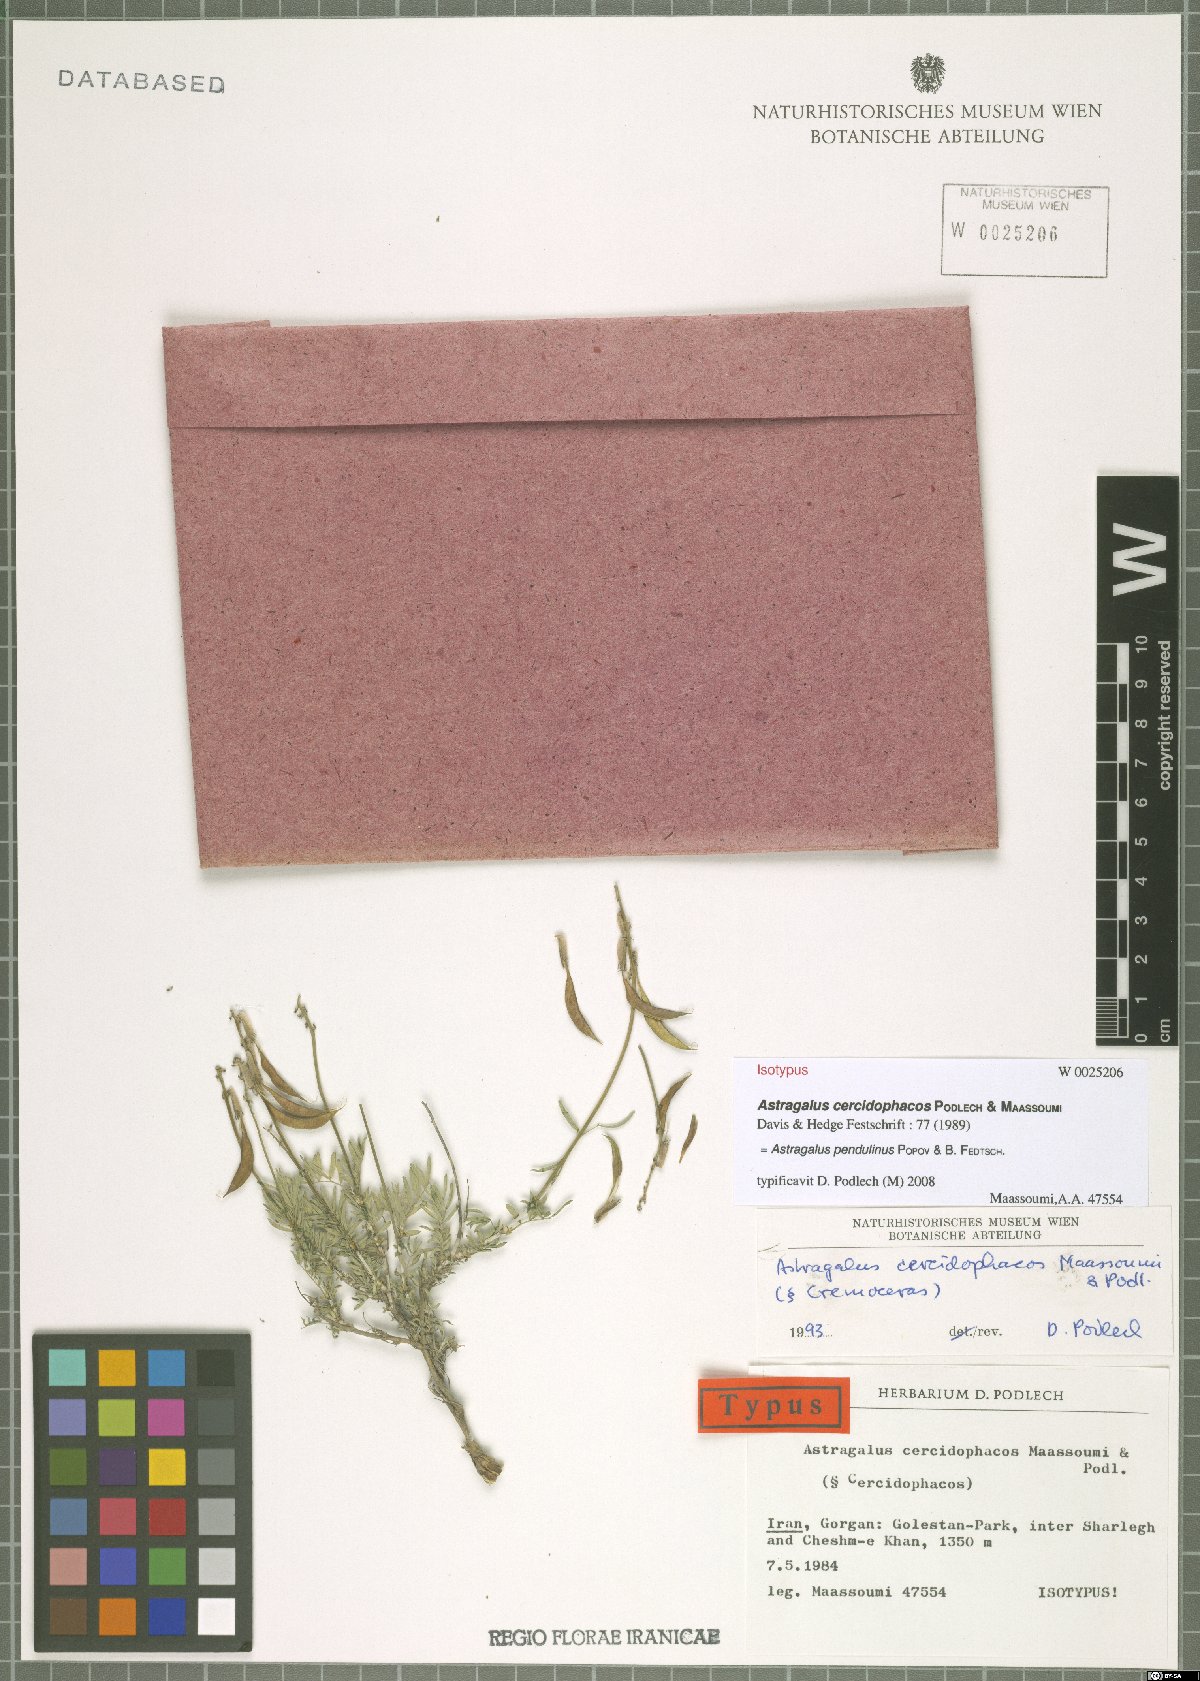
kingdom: Plantae
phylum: Tracheophyta
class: Magnoliopsida
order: Fabales
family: Fabaceae
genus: Astragalus
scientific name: Astragalus pendulinus
